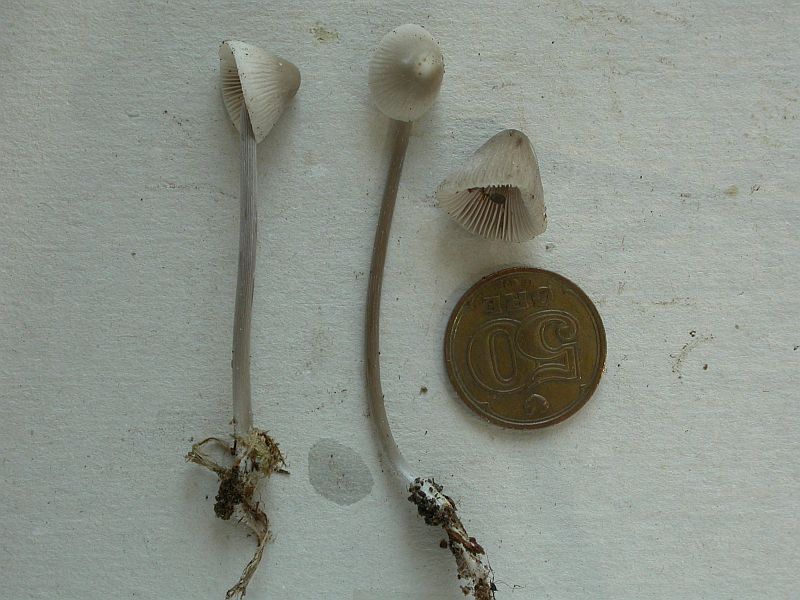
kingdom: Fungi
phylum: Basidiomycota
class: Agaricomycetes
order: Agaricales
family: Mycenaceae
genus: Mycena
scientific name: Mycena polygramma
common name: mangestribet huesvamp
